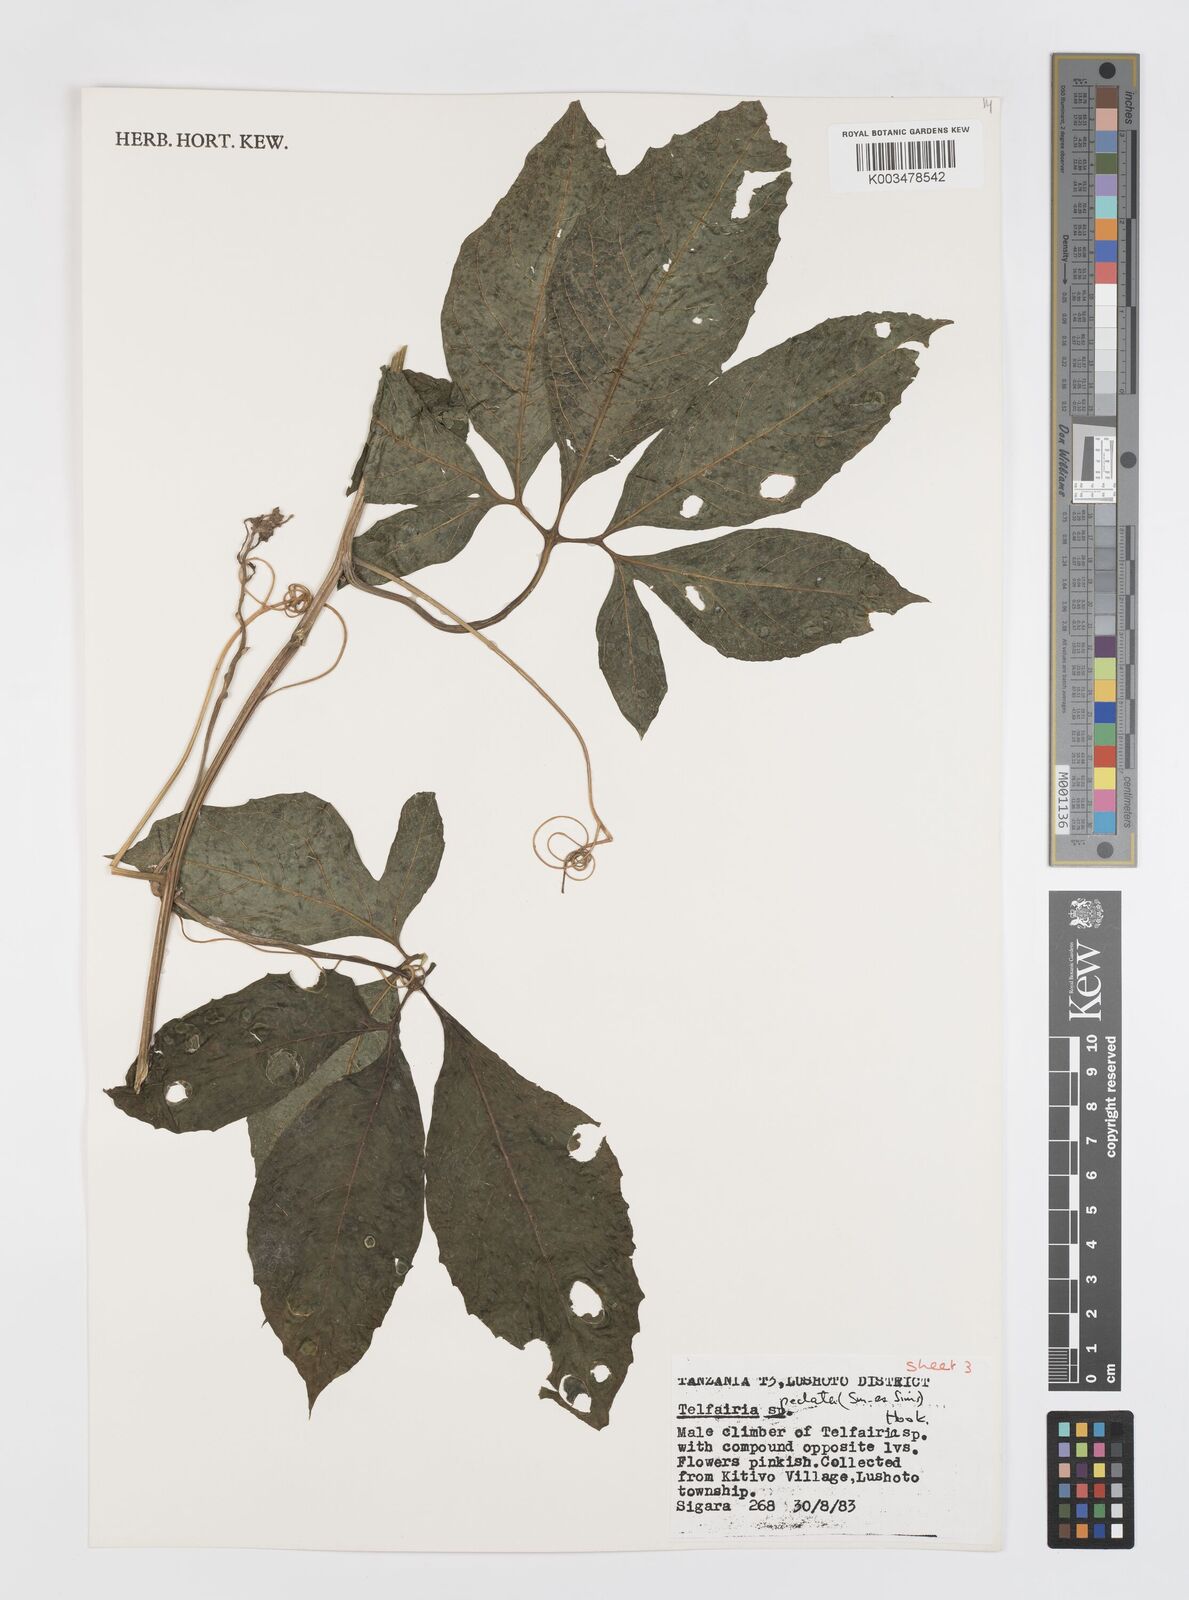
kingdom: Plantae
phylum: Tracheophyta
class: Magnoliopsida
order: Cucurbitales
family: Cucurbitaceae
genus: Telfairia
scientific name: Telfairia pedata
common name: Zanzibar oilvine
